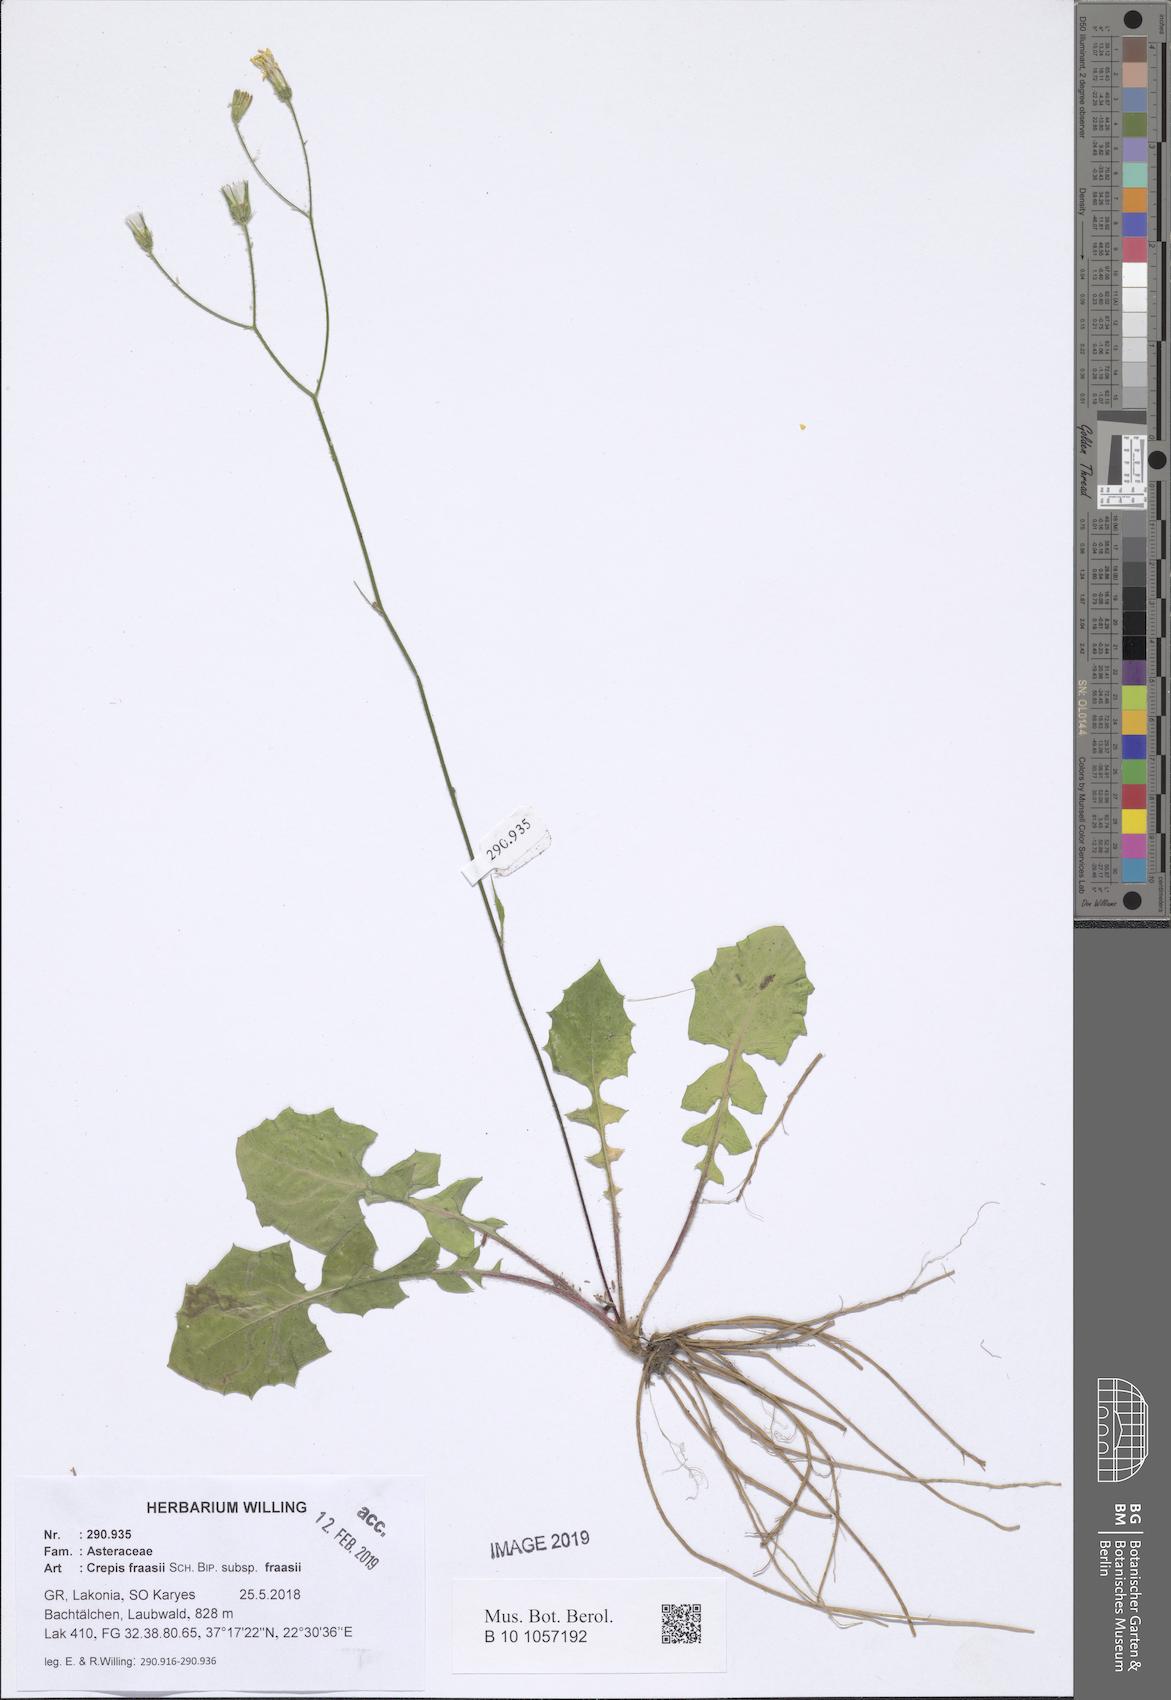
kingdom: Plantae
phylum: Tracheophyta
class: Magnoliopsida
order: Asterales
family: Asteraceae
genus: Crepis
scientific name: Crepis fraasii
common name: Hawk's-beard
